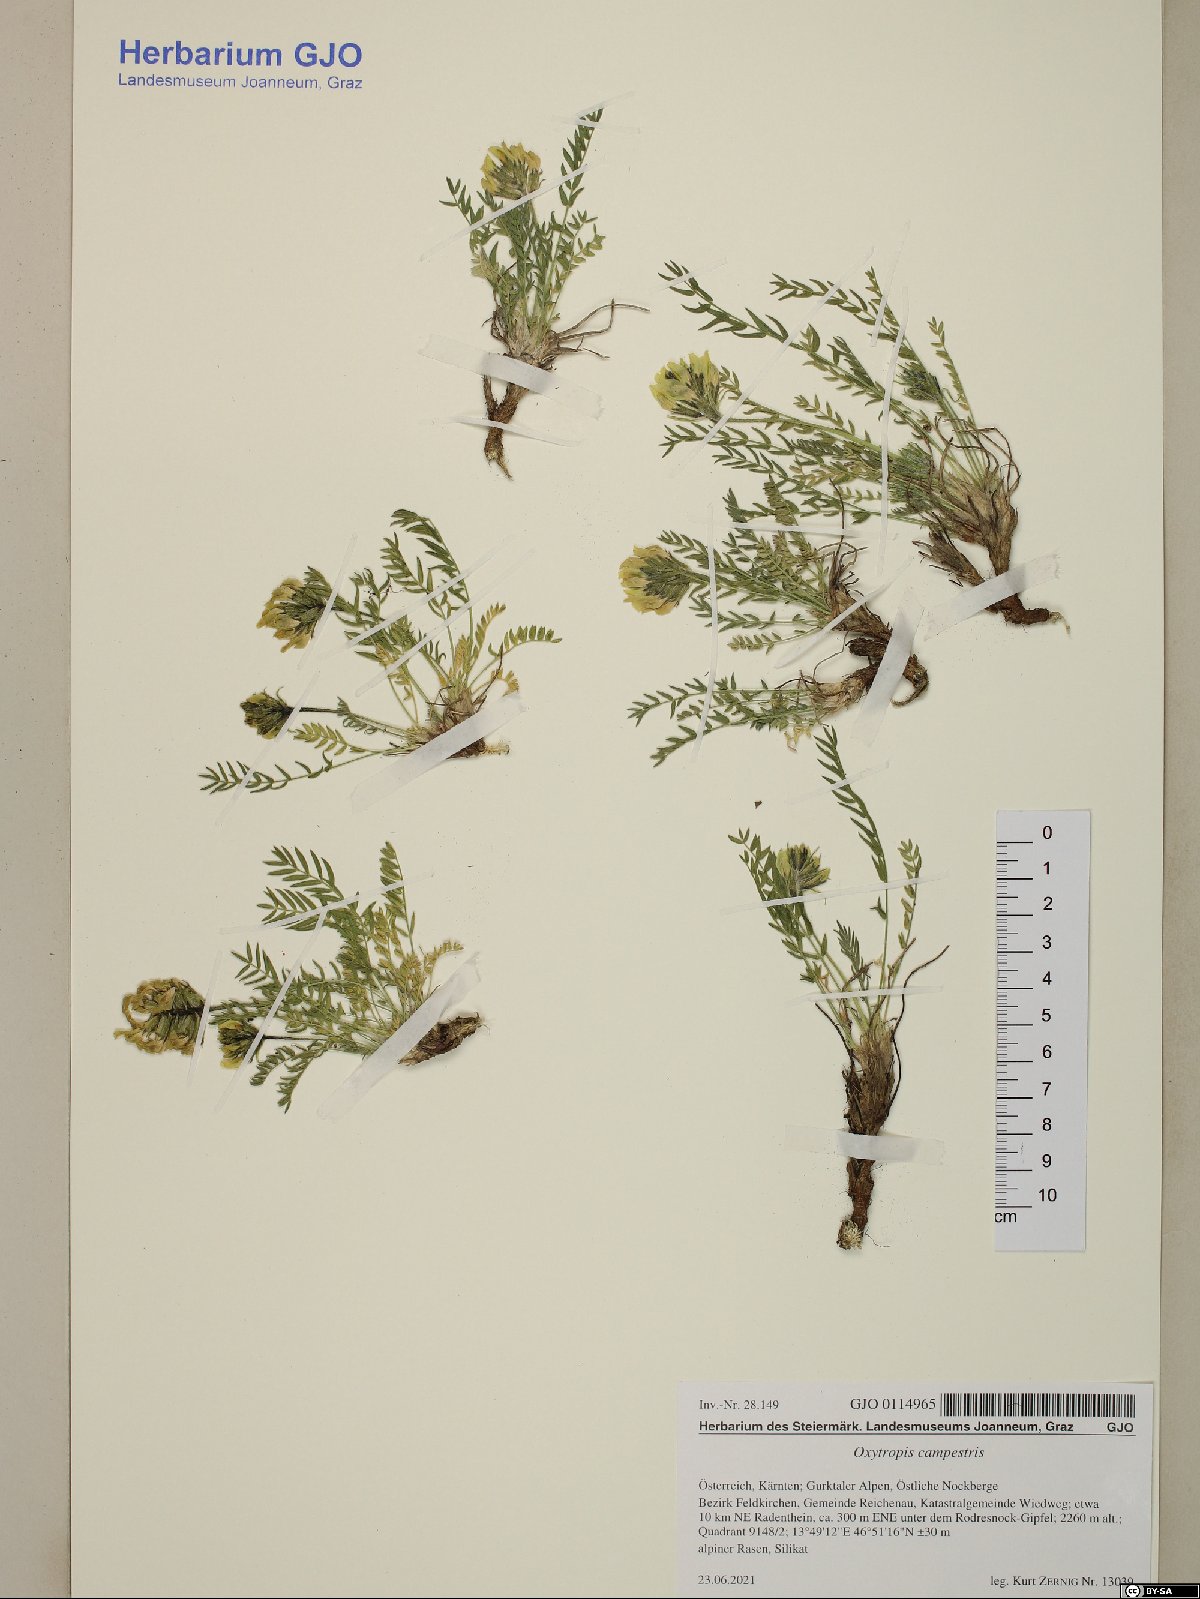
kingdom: Plantae
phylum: Tracheophyta
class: Magnoliopsida
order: Fabales
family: Fabaceae
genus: Oxytropis
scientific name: Oxytropis campestris
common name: Field locoweed
